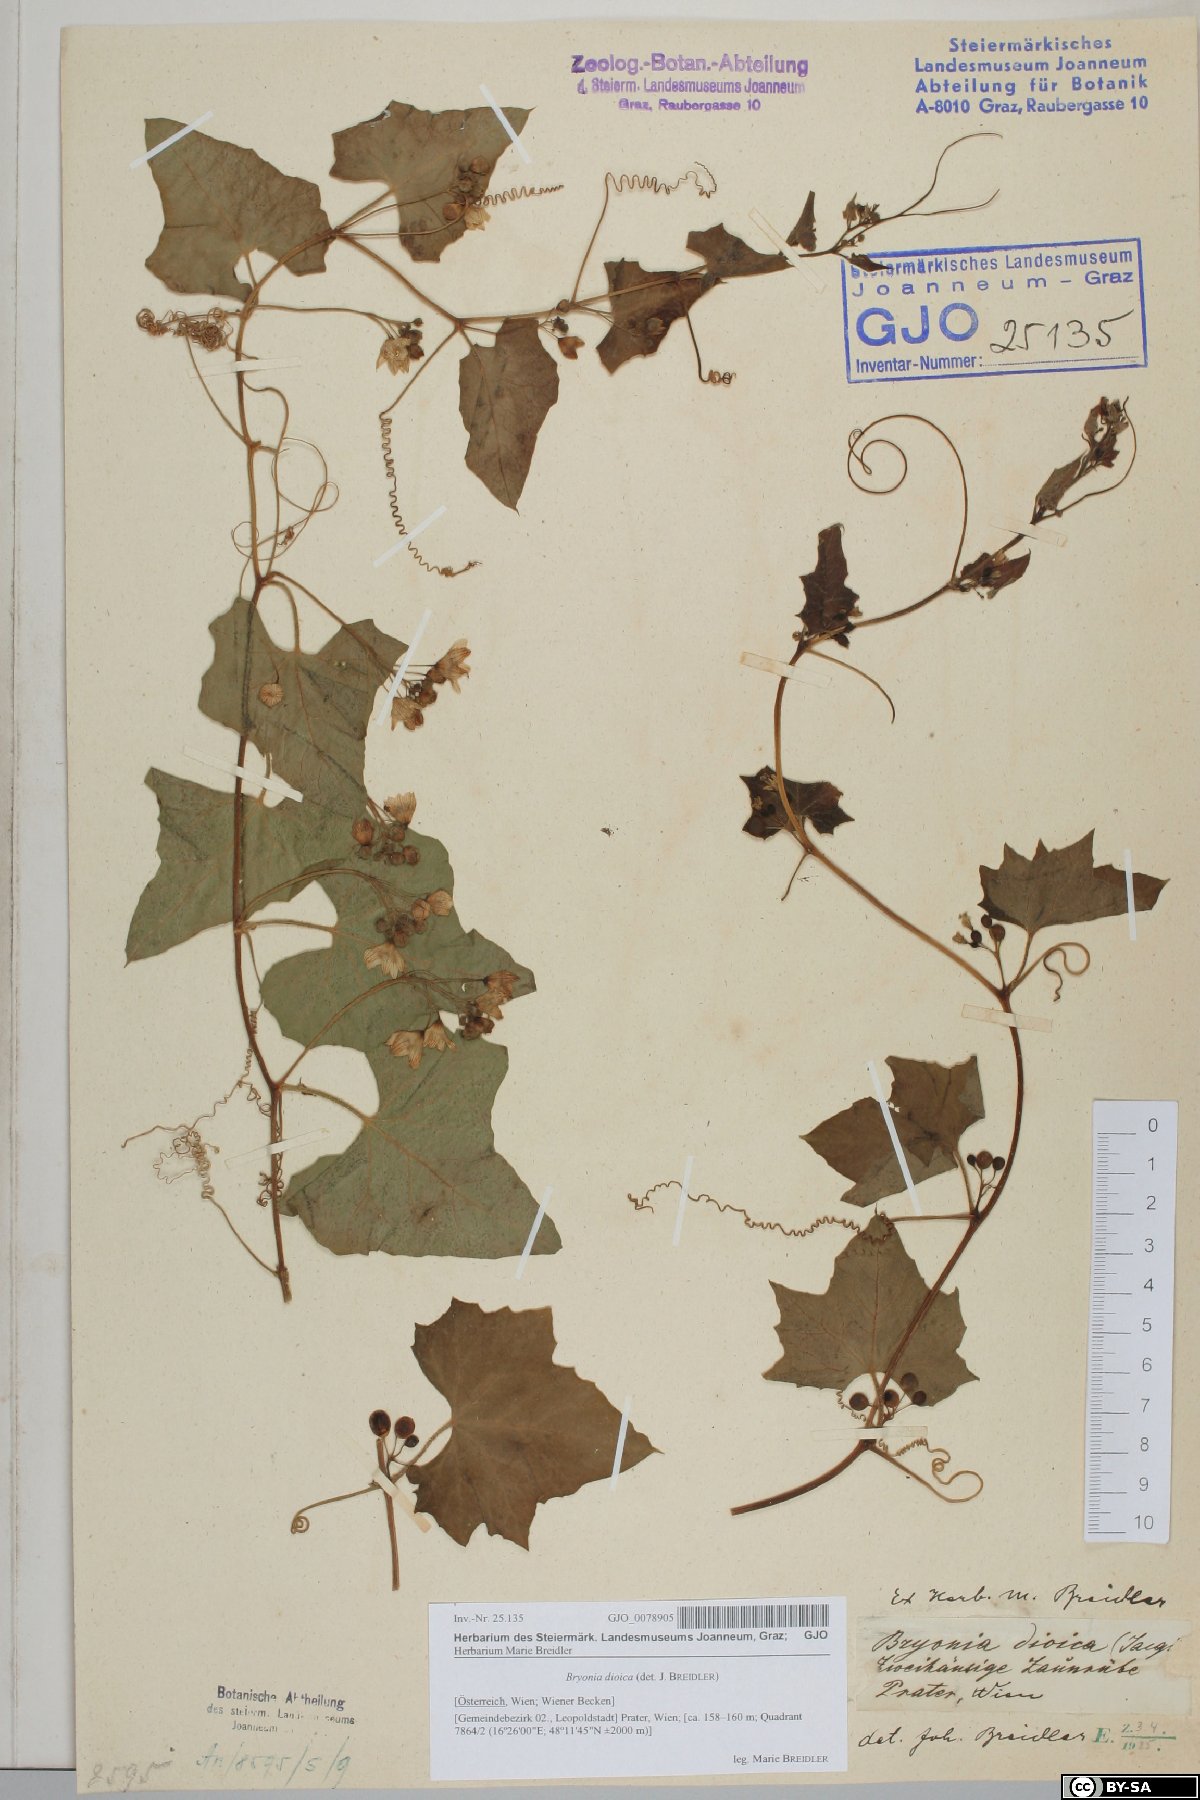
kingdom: Plantae
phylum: Tracheophyta
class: Magnoliopsida
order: Cucurbitales
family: Cucurbitaceae
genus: Bryonia
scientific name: Bryonia dioica
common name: White bryony
